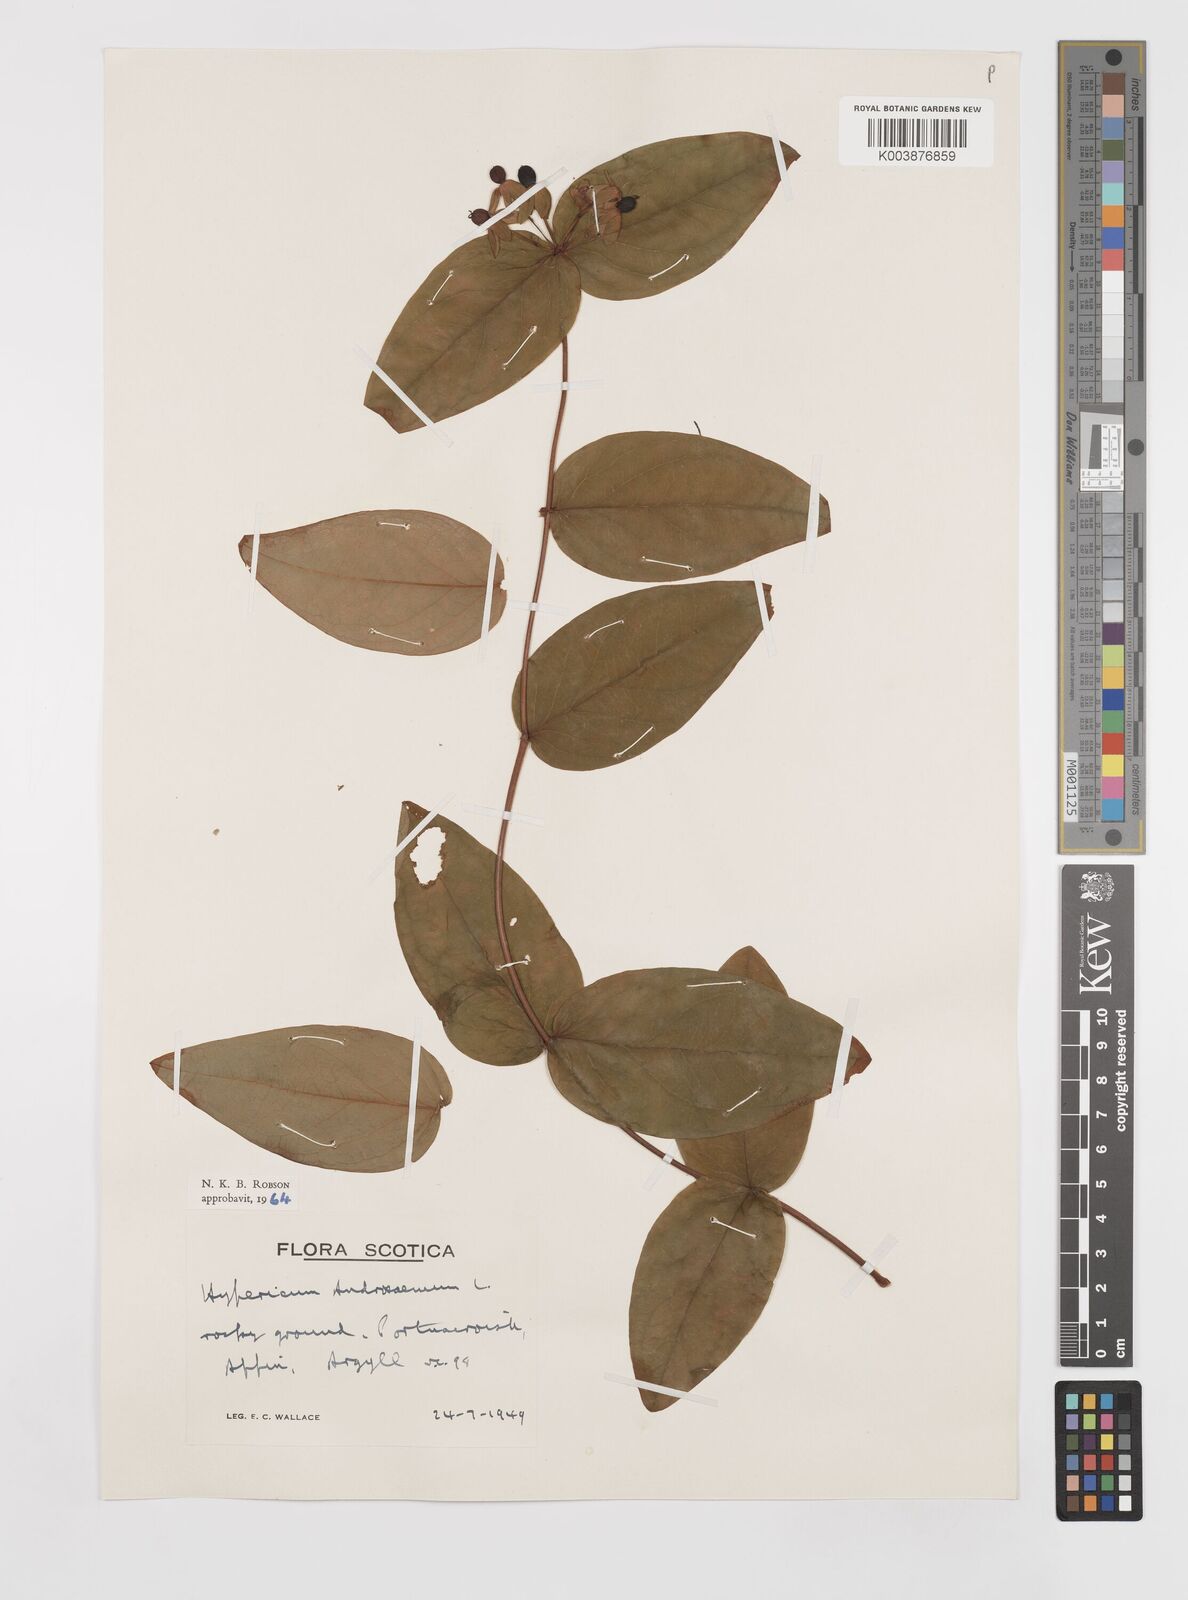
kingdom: Plantae
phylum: Tracheophyta
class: Magnoliopsida
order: Malpighiales
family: Hypericaceae
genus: Hypericum
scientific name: Hypericum androsaemum
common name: Sweet-amber
